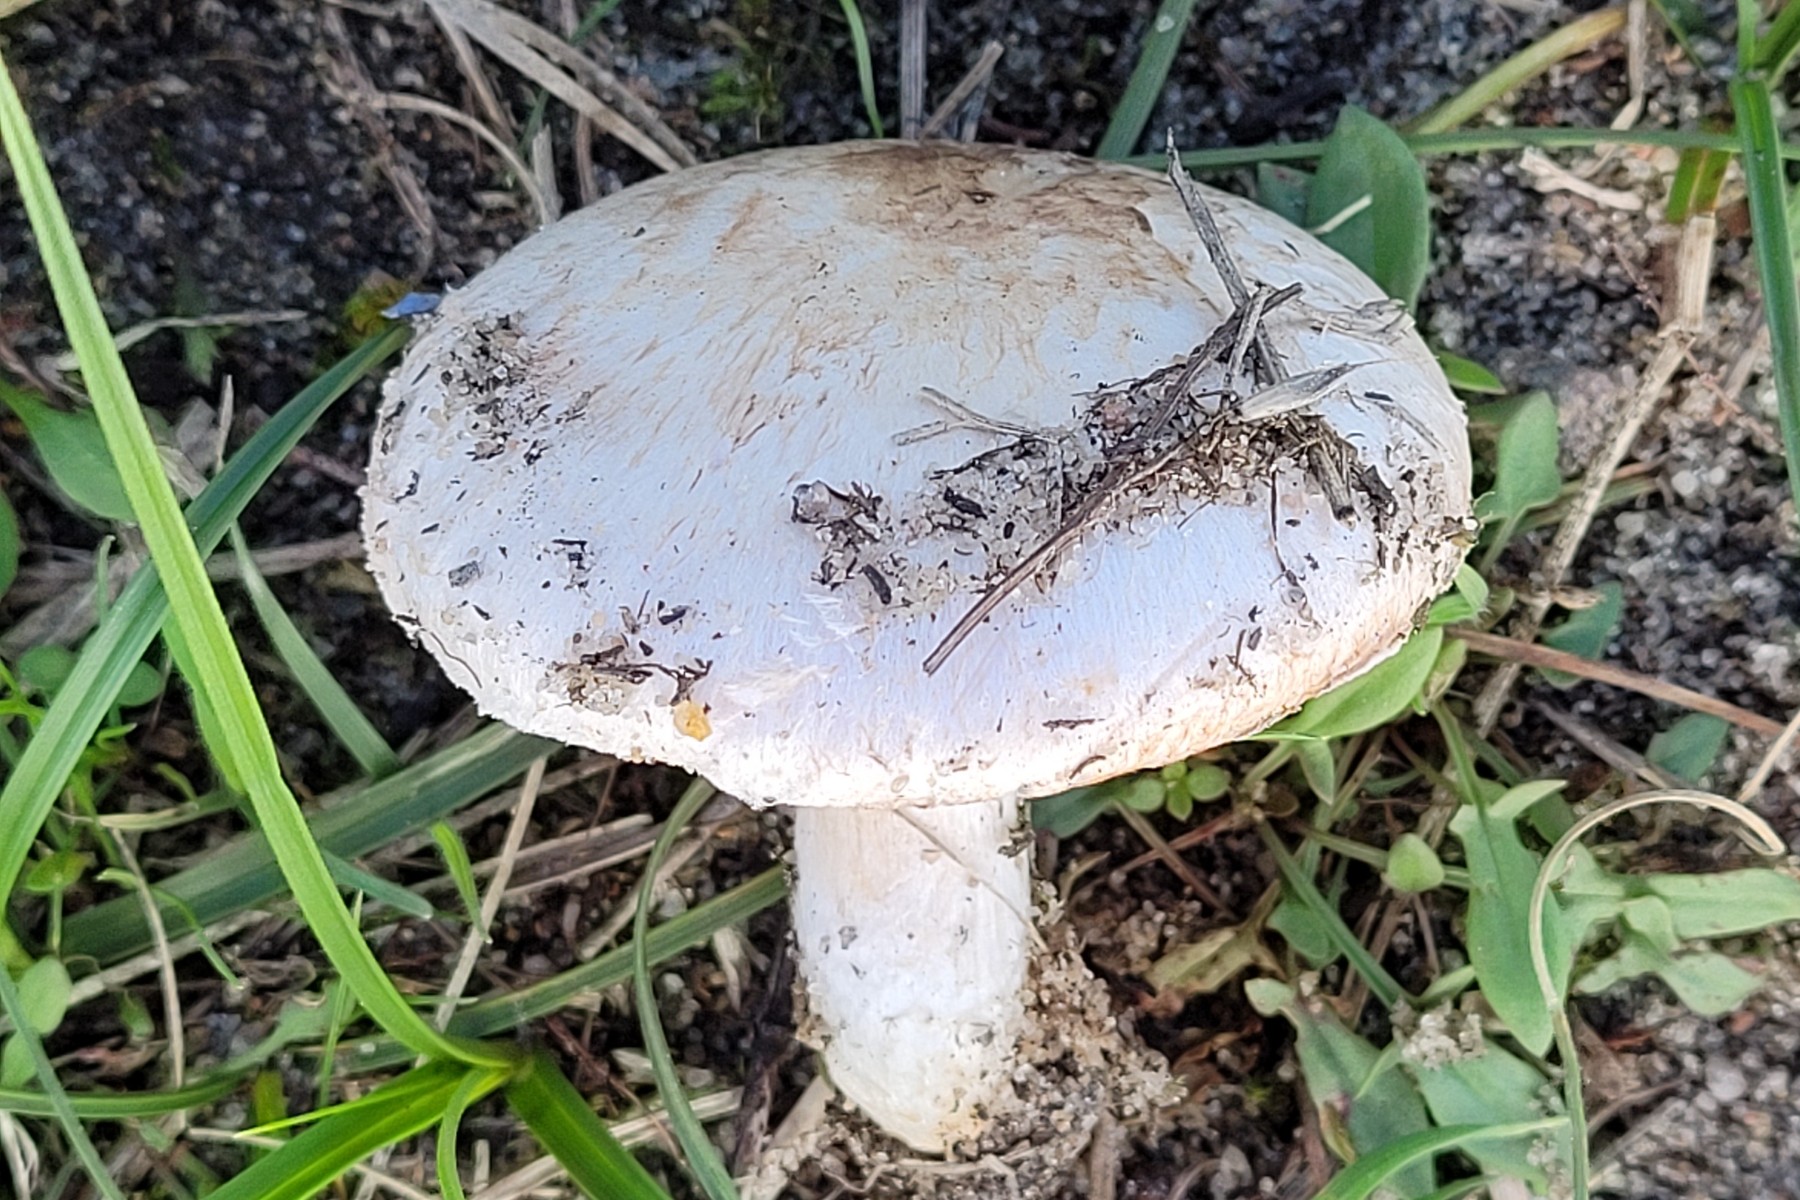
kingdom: Fungi
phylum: Basidiomycota
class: Agaricomycetes
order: Agaricales
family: Agaricaceae
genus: Agaricus
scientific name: Agaricus campestris
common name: mark-champignon
